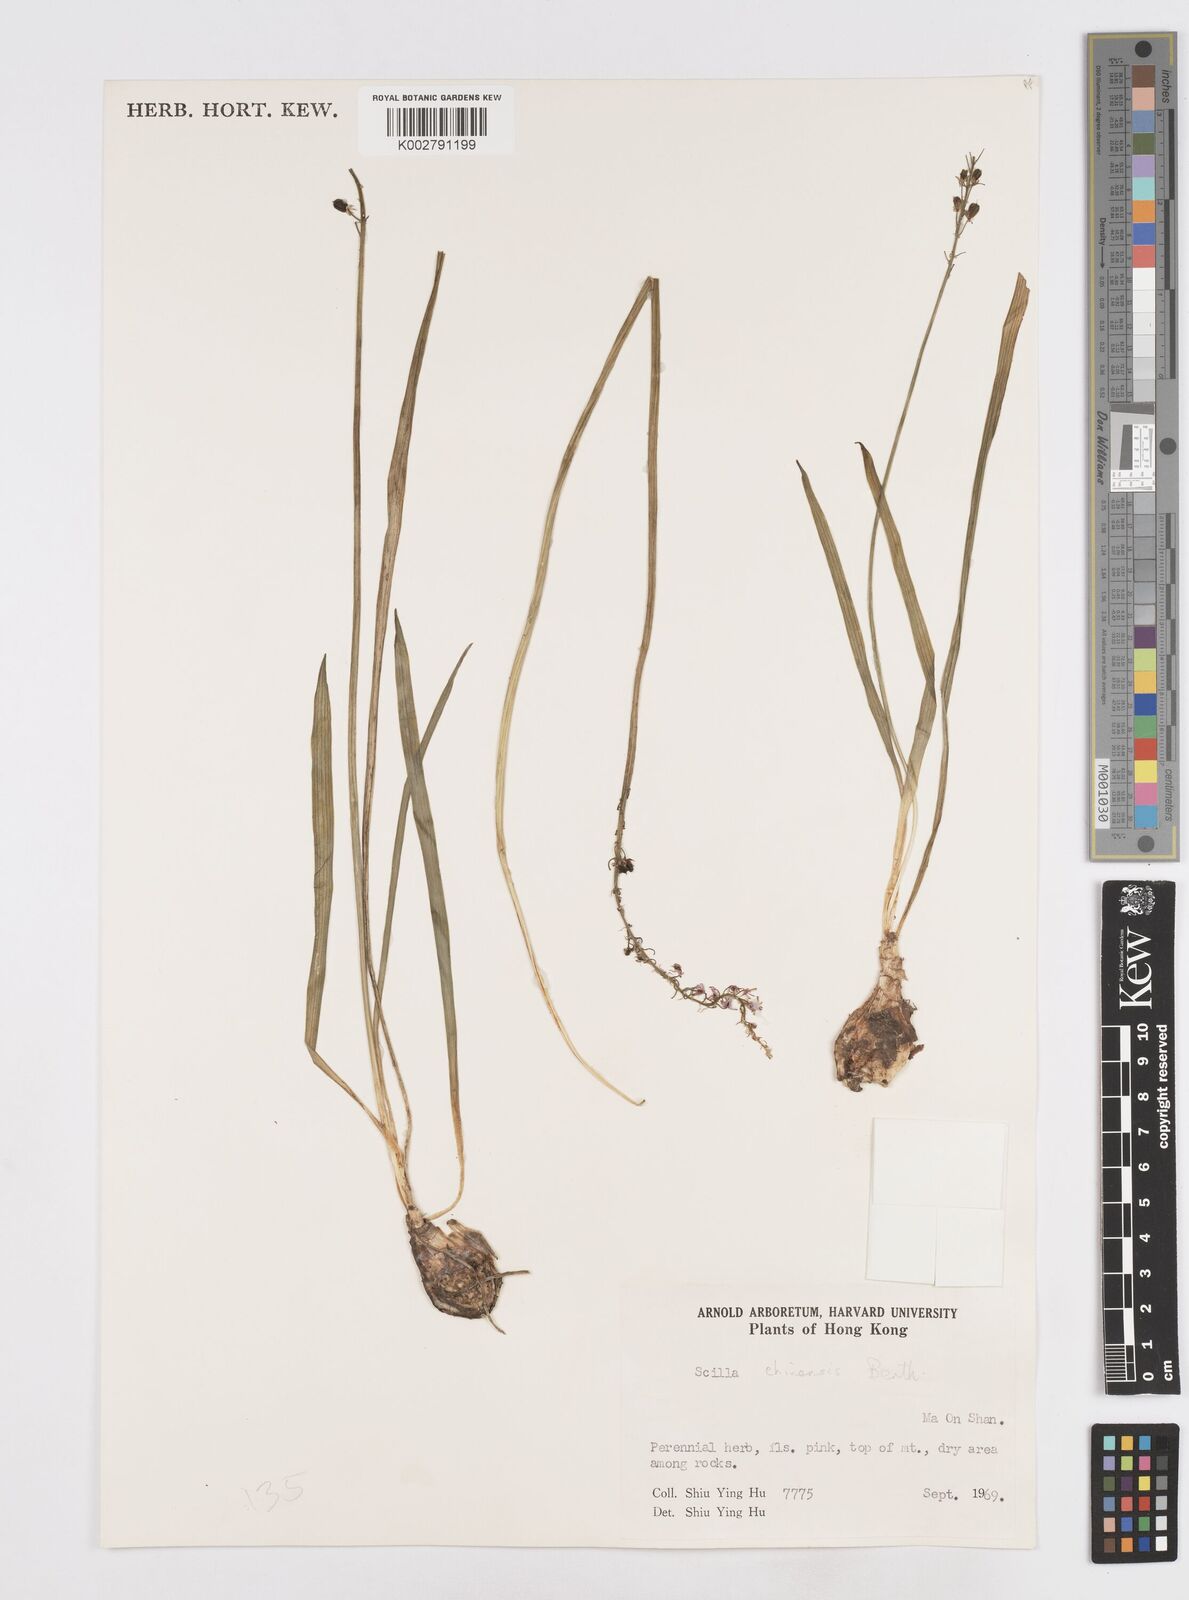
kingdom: Plantae
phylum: Tracheophyta
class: Liliopsida
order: Asparagales
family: Asparagaceae
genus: Barnardia
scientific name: Barnardia japonica
